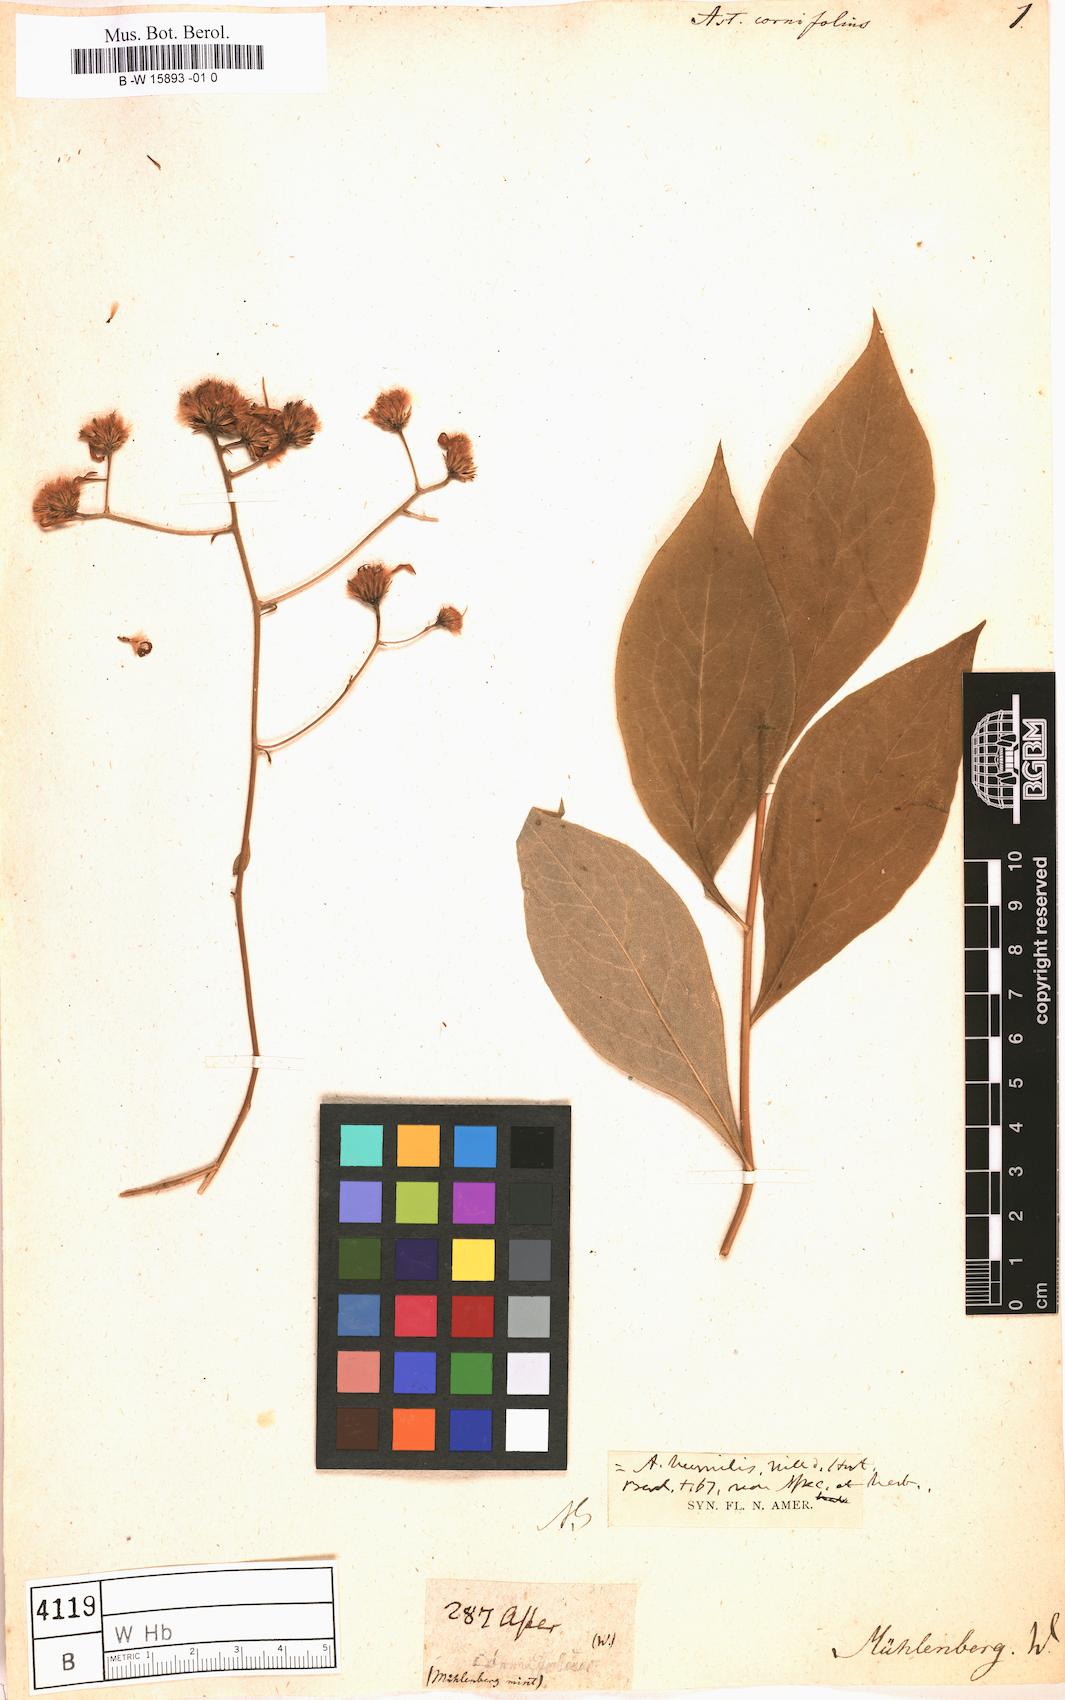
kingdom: Plantae
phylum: Tracheophyta
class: Magnoliopsida
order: Asterales
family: Asteraceae
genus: Doellingeria
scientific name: Doellingeria infirma
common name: Appalachian flat-top aster
